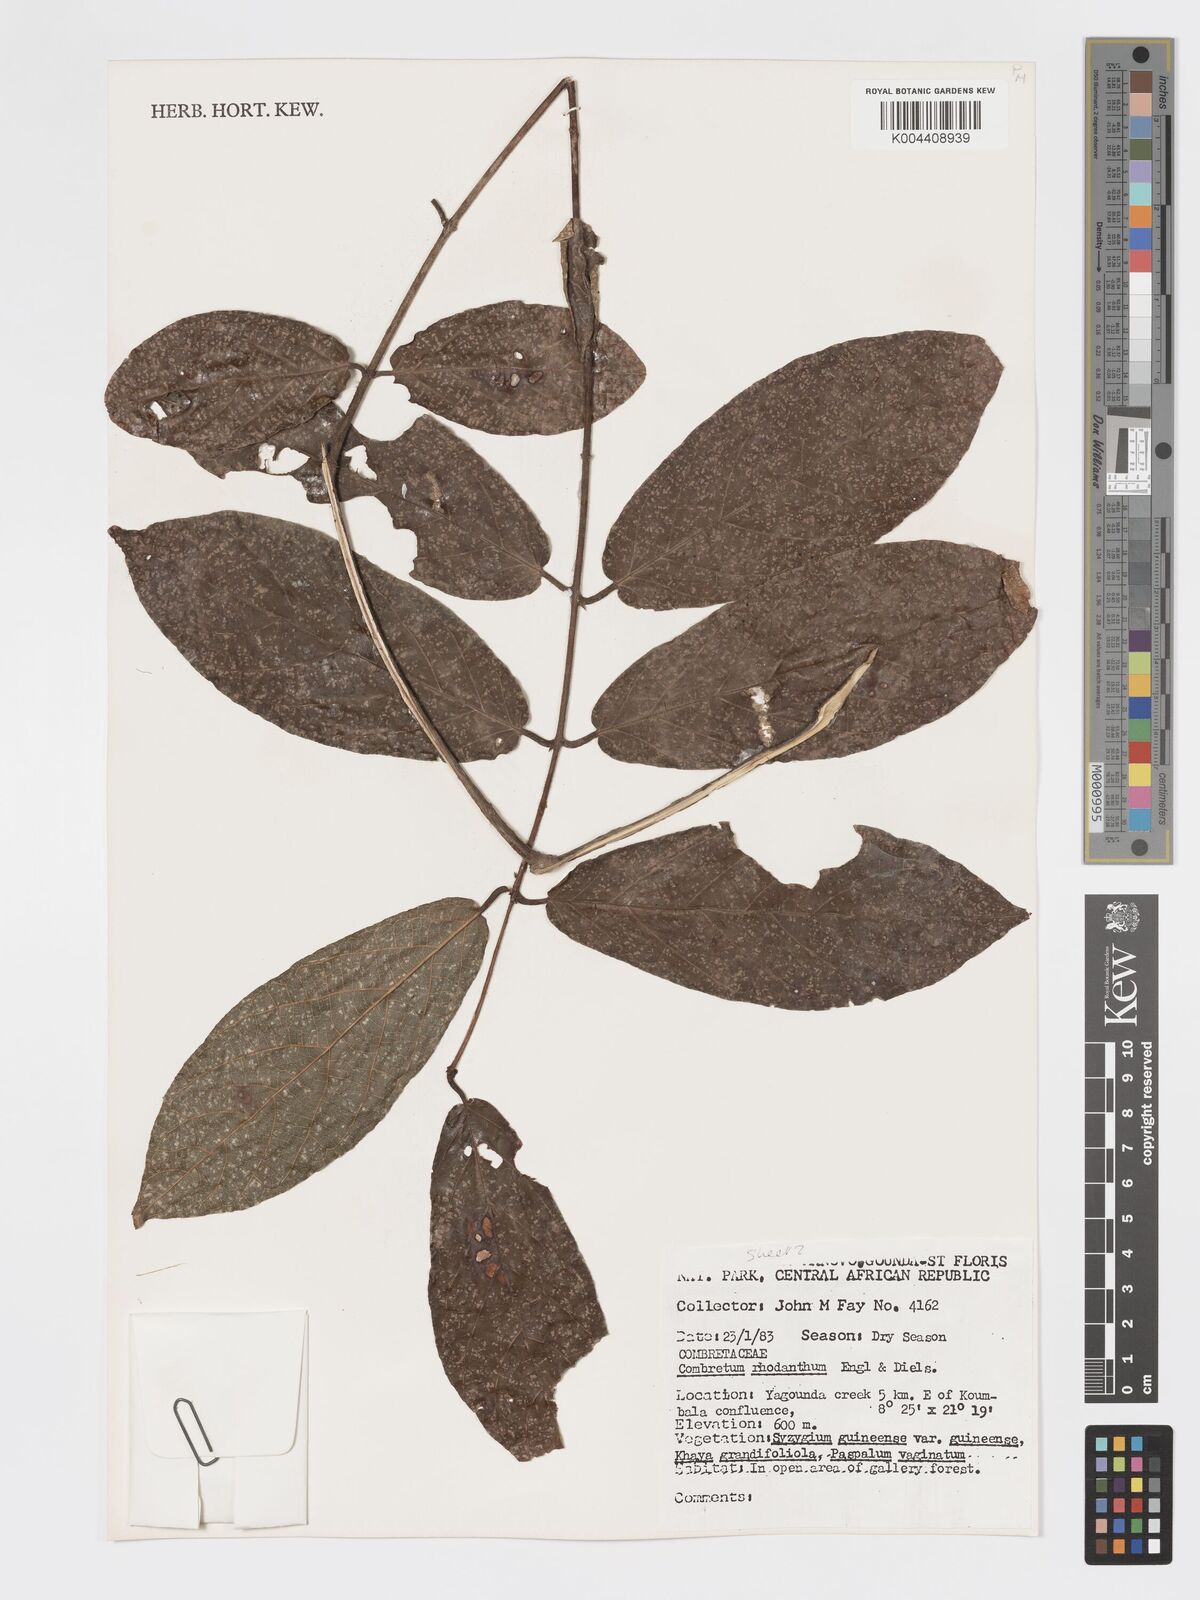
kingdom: Plantae
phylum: Tracheophyta
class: Magnoliopsida
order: Myrtales
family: Combretaceae
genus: Combretum
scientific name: Combretum comosum
